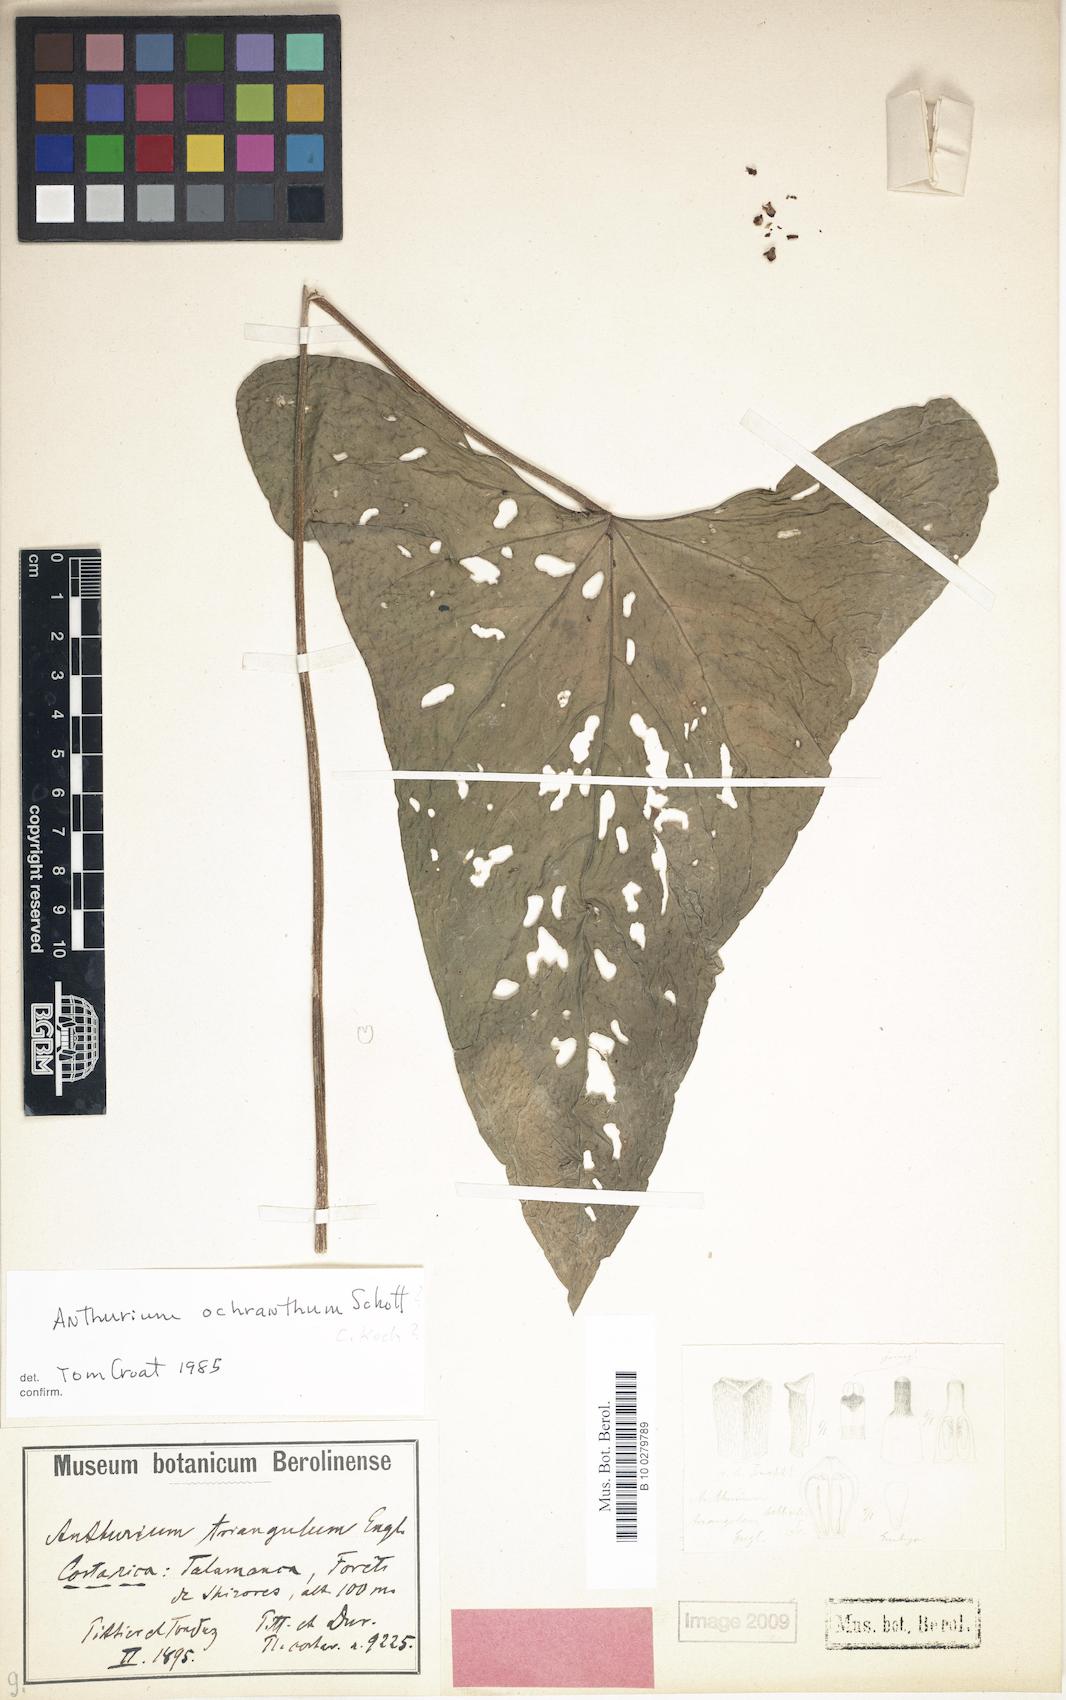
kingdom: Plantae
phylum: Tracheophyta
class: Liliopsida
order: Alismatales
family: Araceae
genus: Anthurium
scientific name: Anthurium ochranthum
